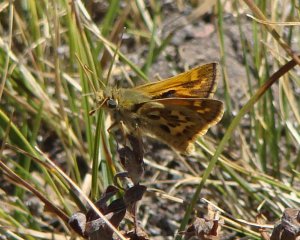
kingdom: Animalia
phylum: Arthropoda
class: Insecta
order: Lepidoptera
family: Hesperiidae
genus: Polites
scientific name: Polites sabuleti
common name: Sandhill Skipper
